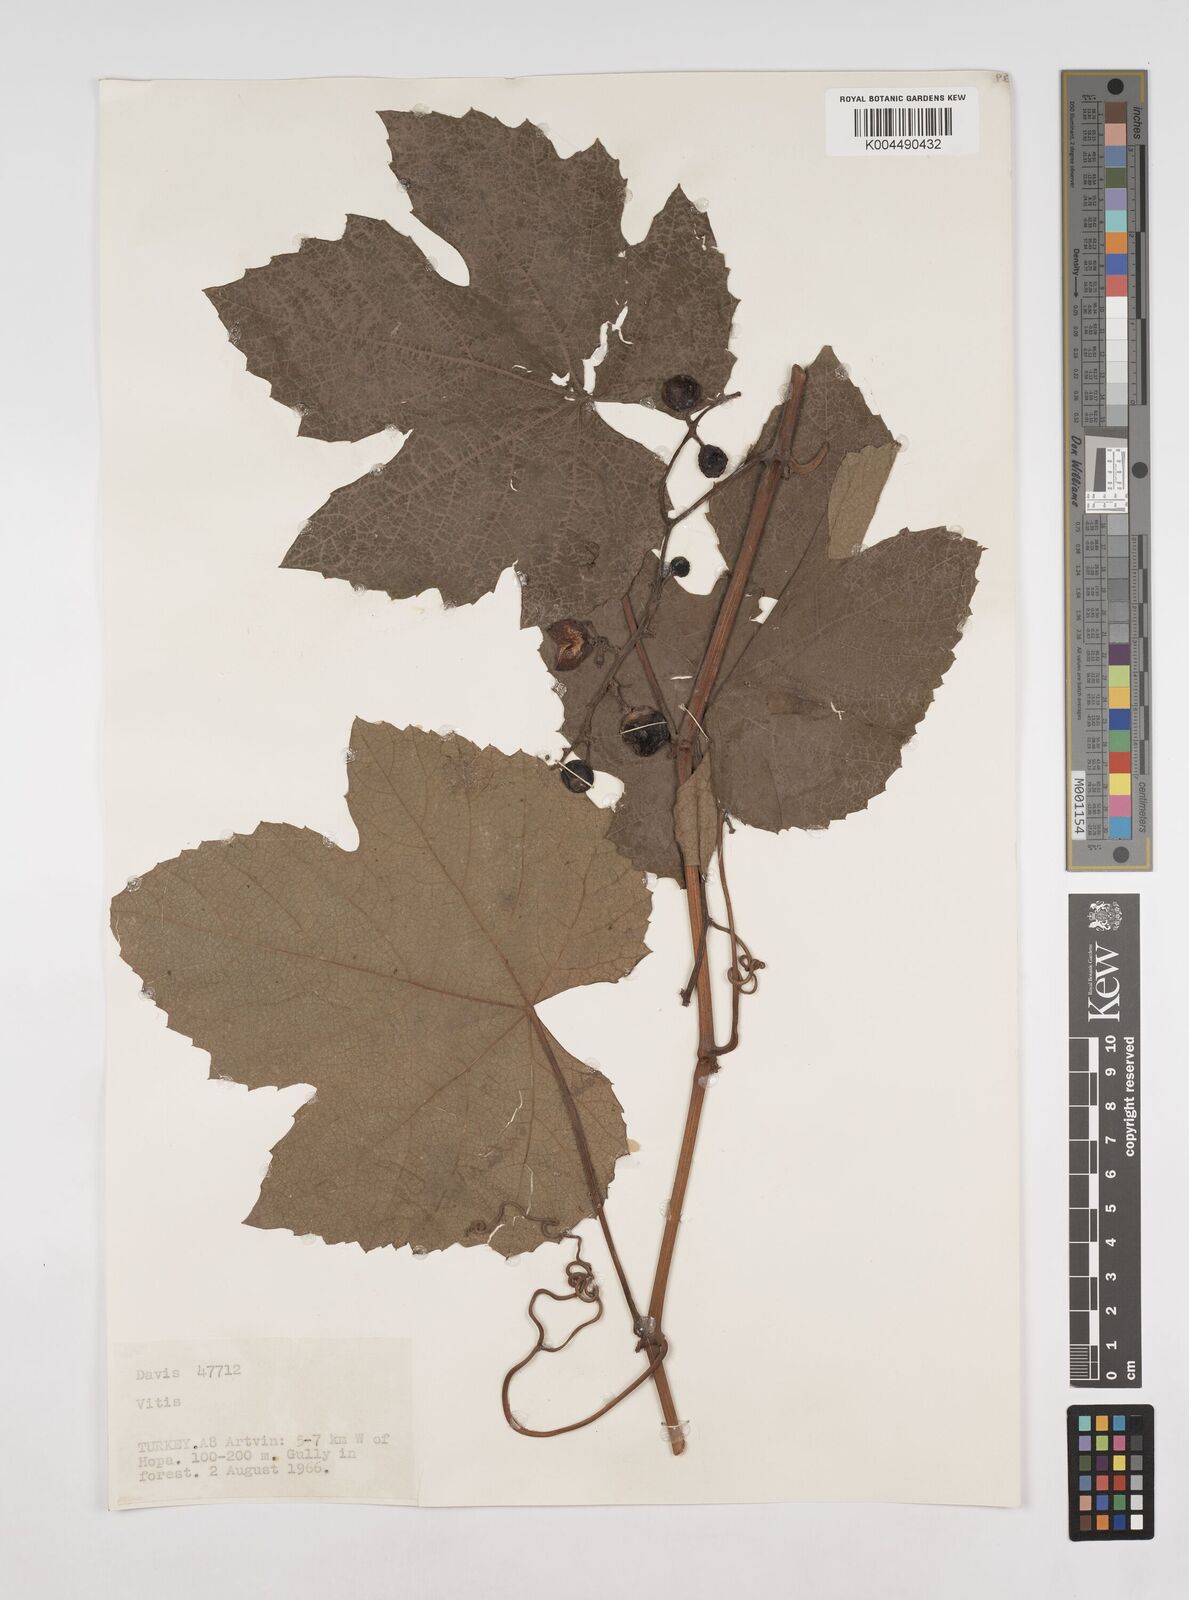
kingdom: Plantae
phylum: Tracheophyta
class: Magnoliopsida
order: Vitales
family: Vitaceae
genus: Vitis
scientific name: Vitis gmelinii
